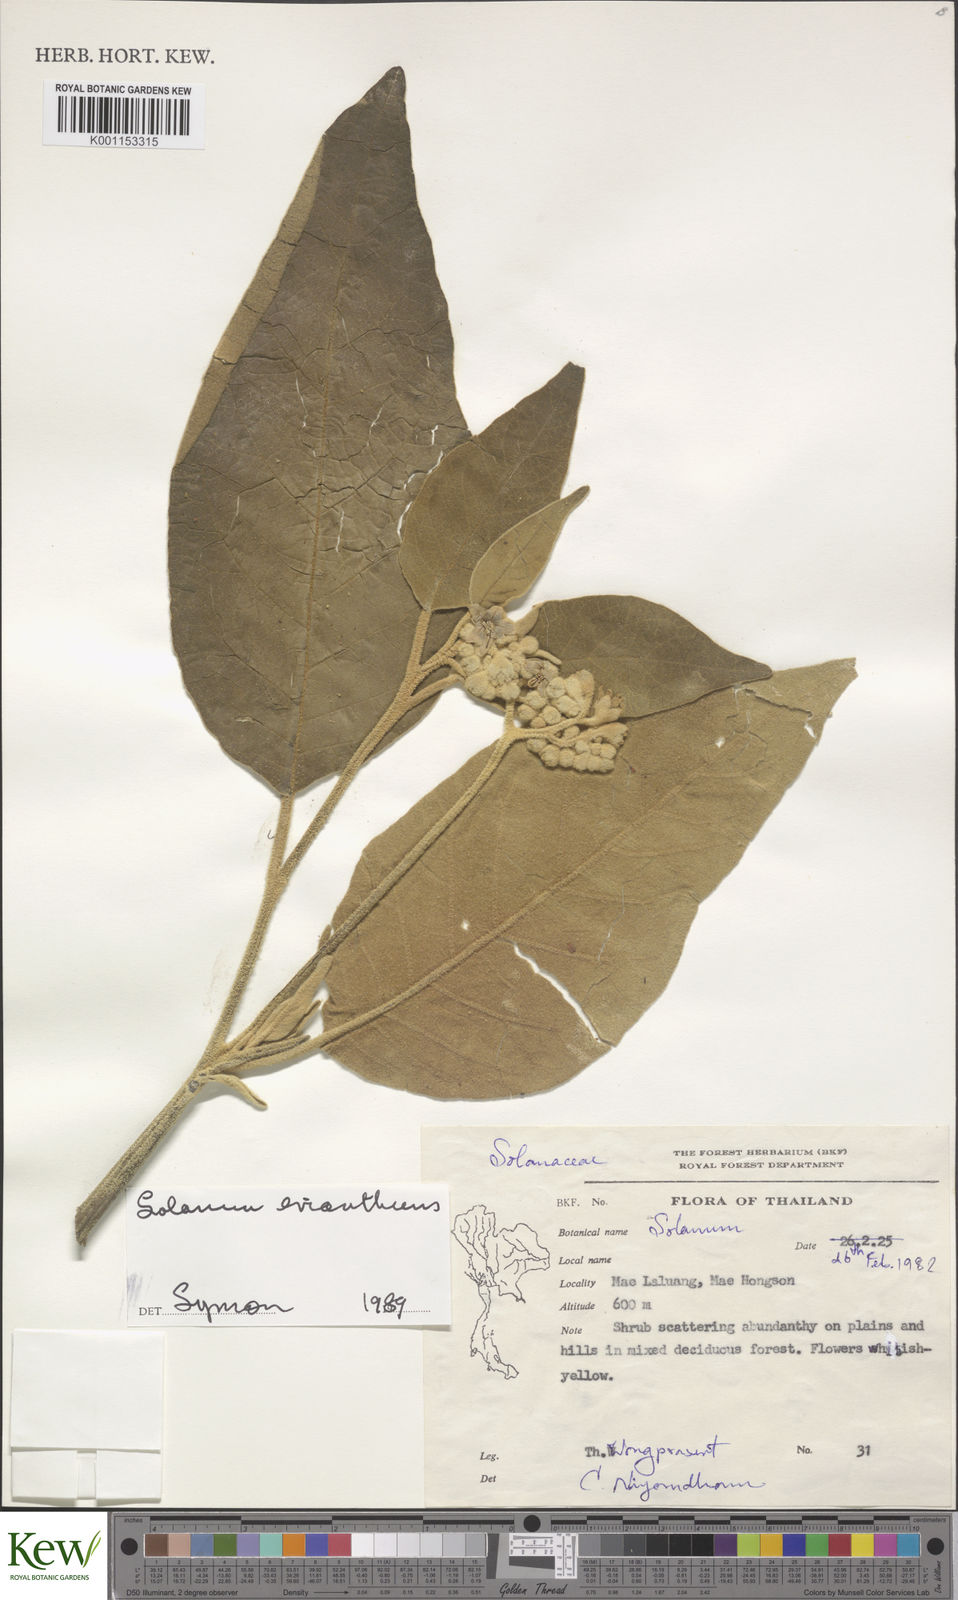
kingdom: Plantae
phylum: Tracheophyta
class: Magnoliopsida
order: Solanales
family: Solanaceae
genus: Solanum
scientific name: Solanum erianthum
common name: Tobacco-tree
